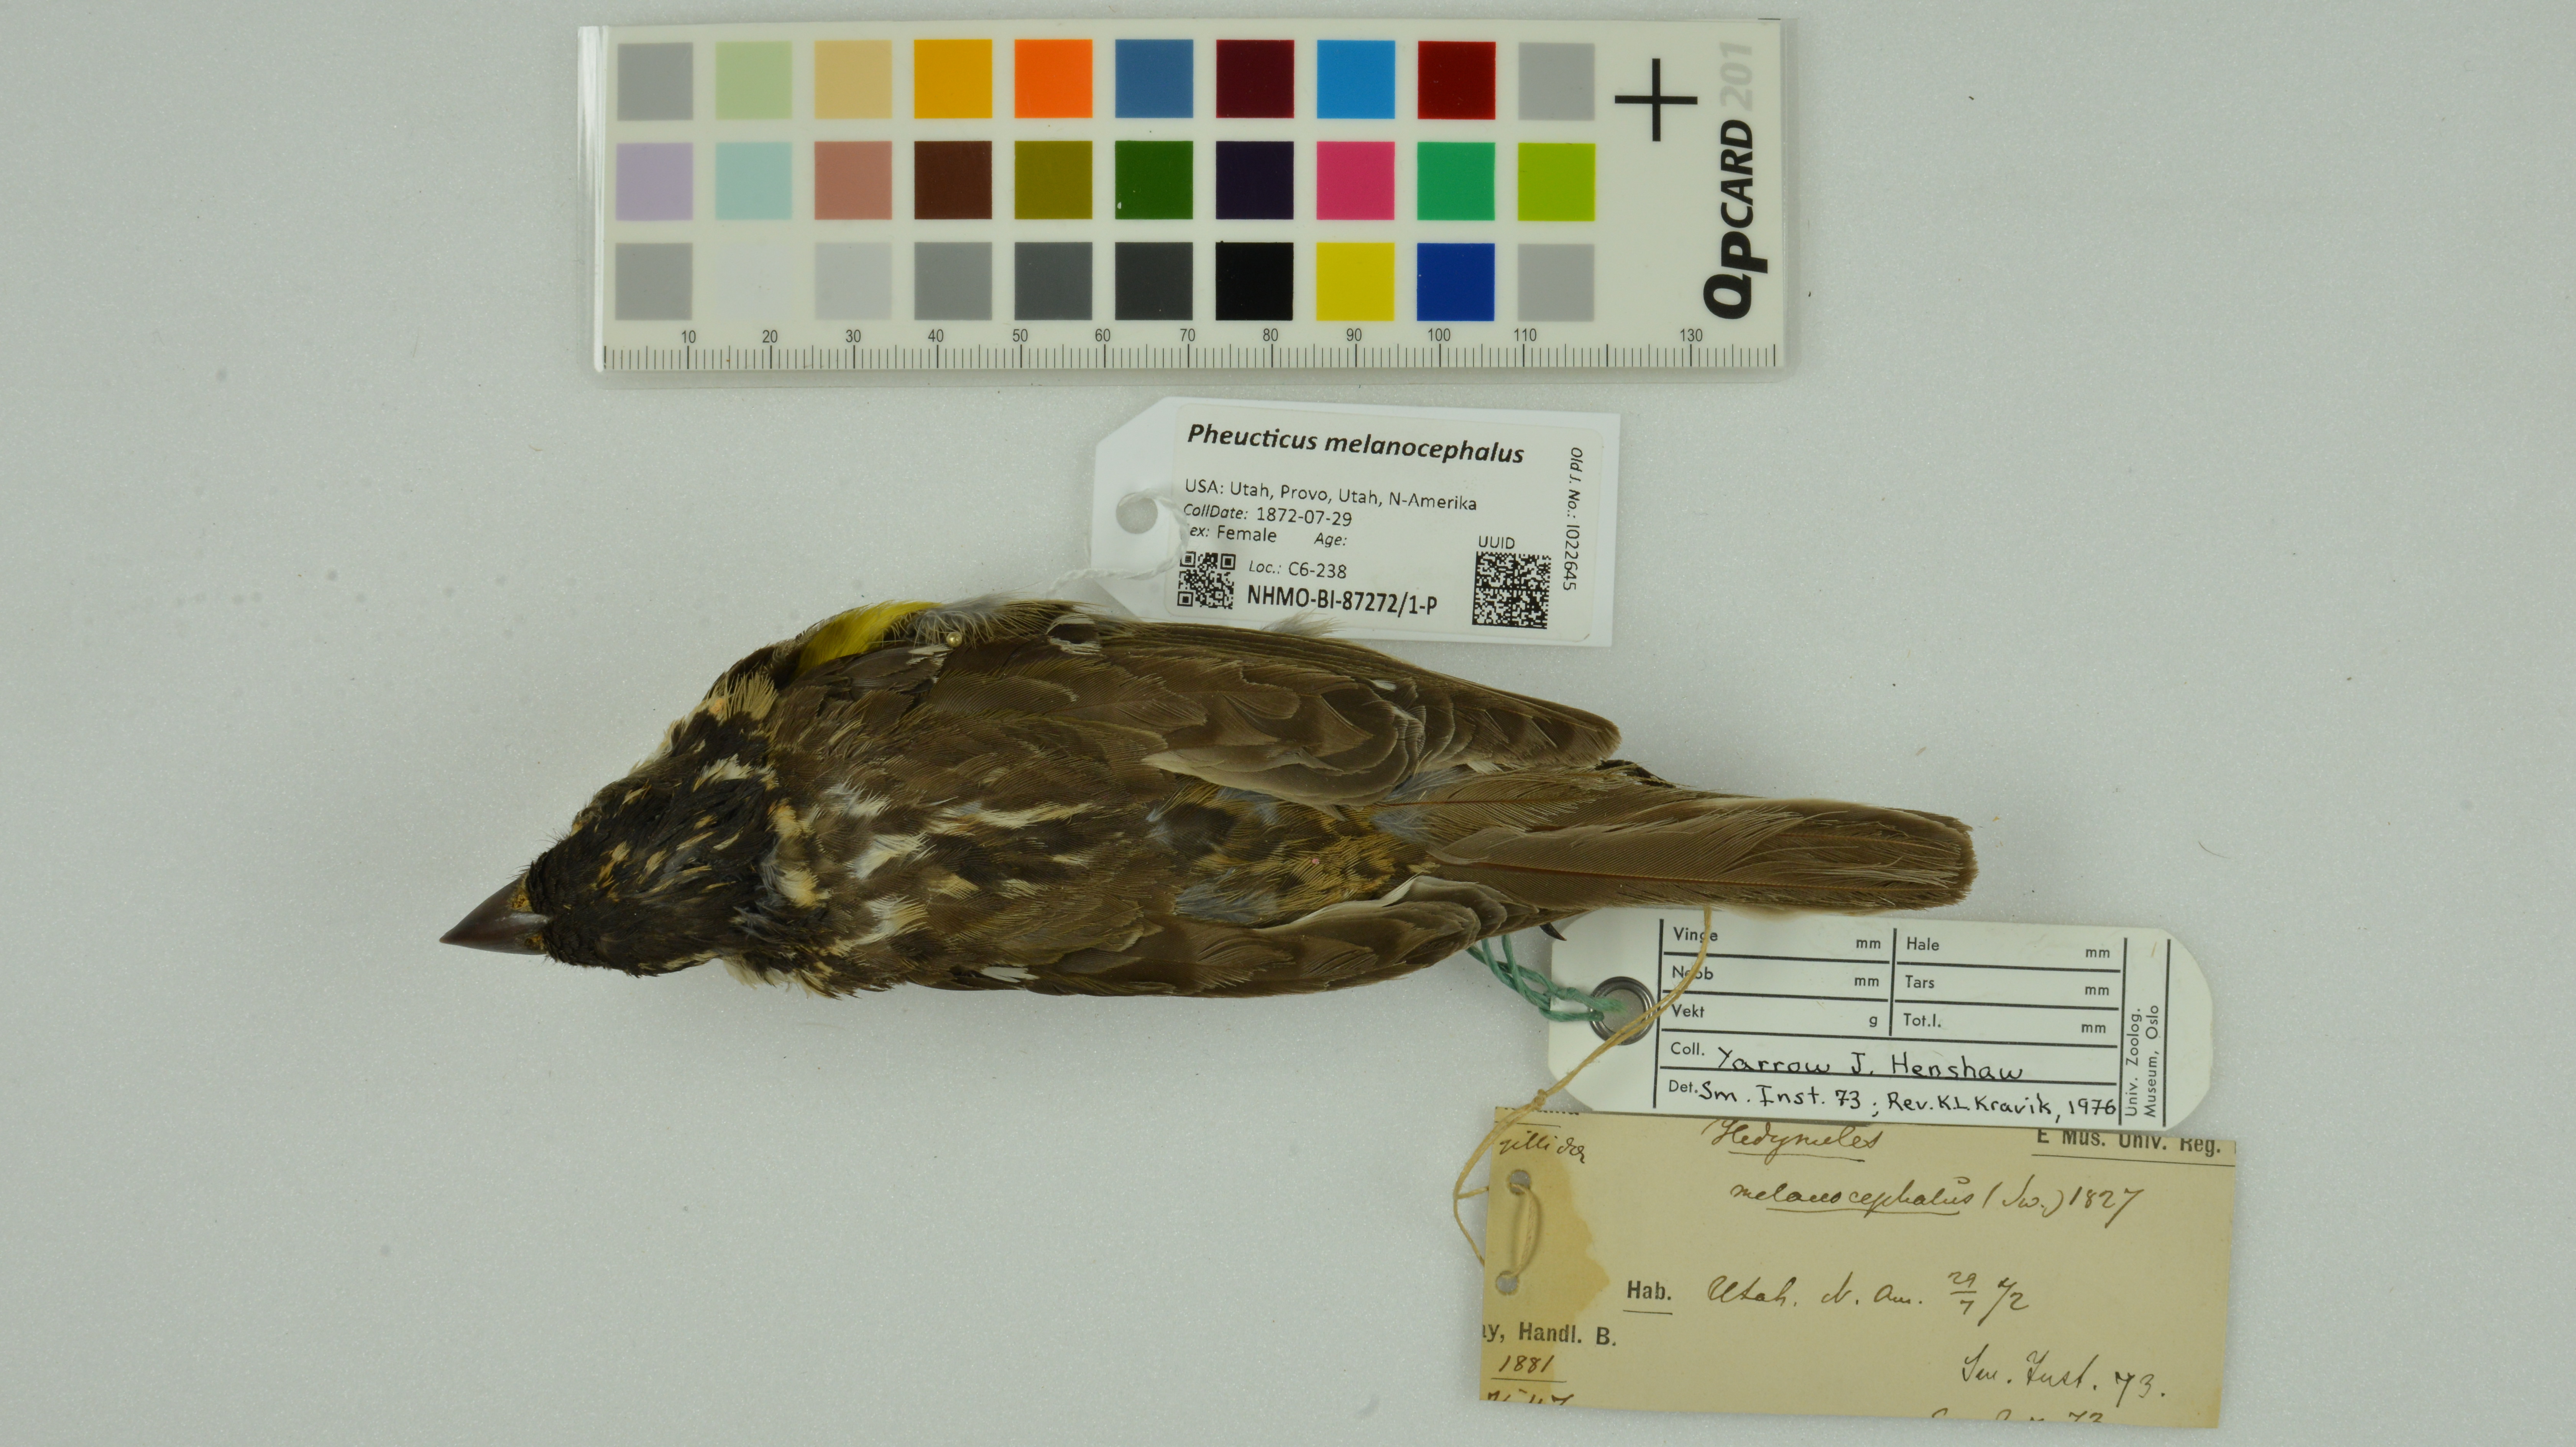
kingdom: Animalia
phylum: Chordata
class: Aves
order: Passeriformes
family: Cardinalidae
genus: Pheucticus
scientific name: Pheucticus melanocephalus
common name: Black-headed grosbeak
